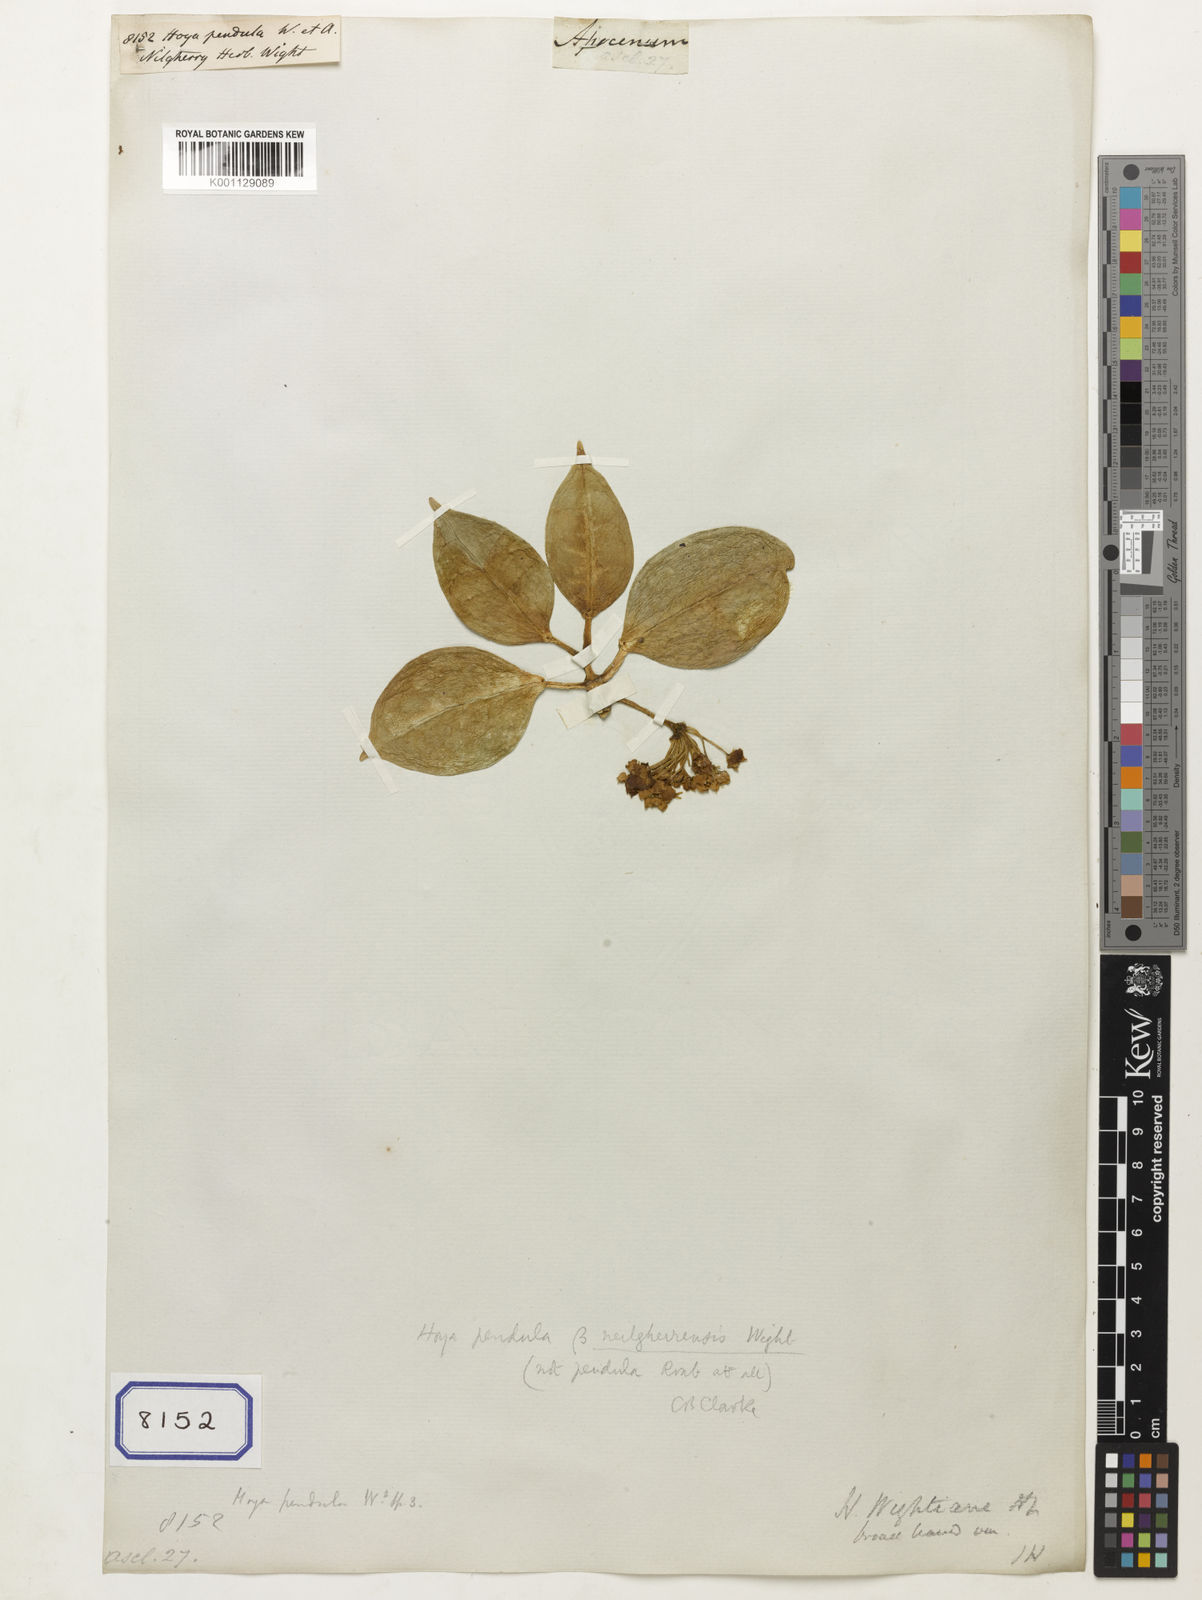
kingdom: Plantae
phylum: Tracheophyta
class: Magnoliopsida
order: Gentianales
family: Apocynaceae
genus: Hoya
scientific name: Hoya alexicaca
